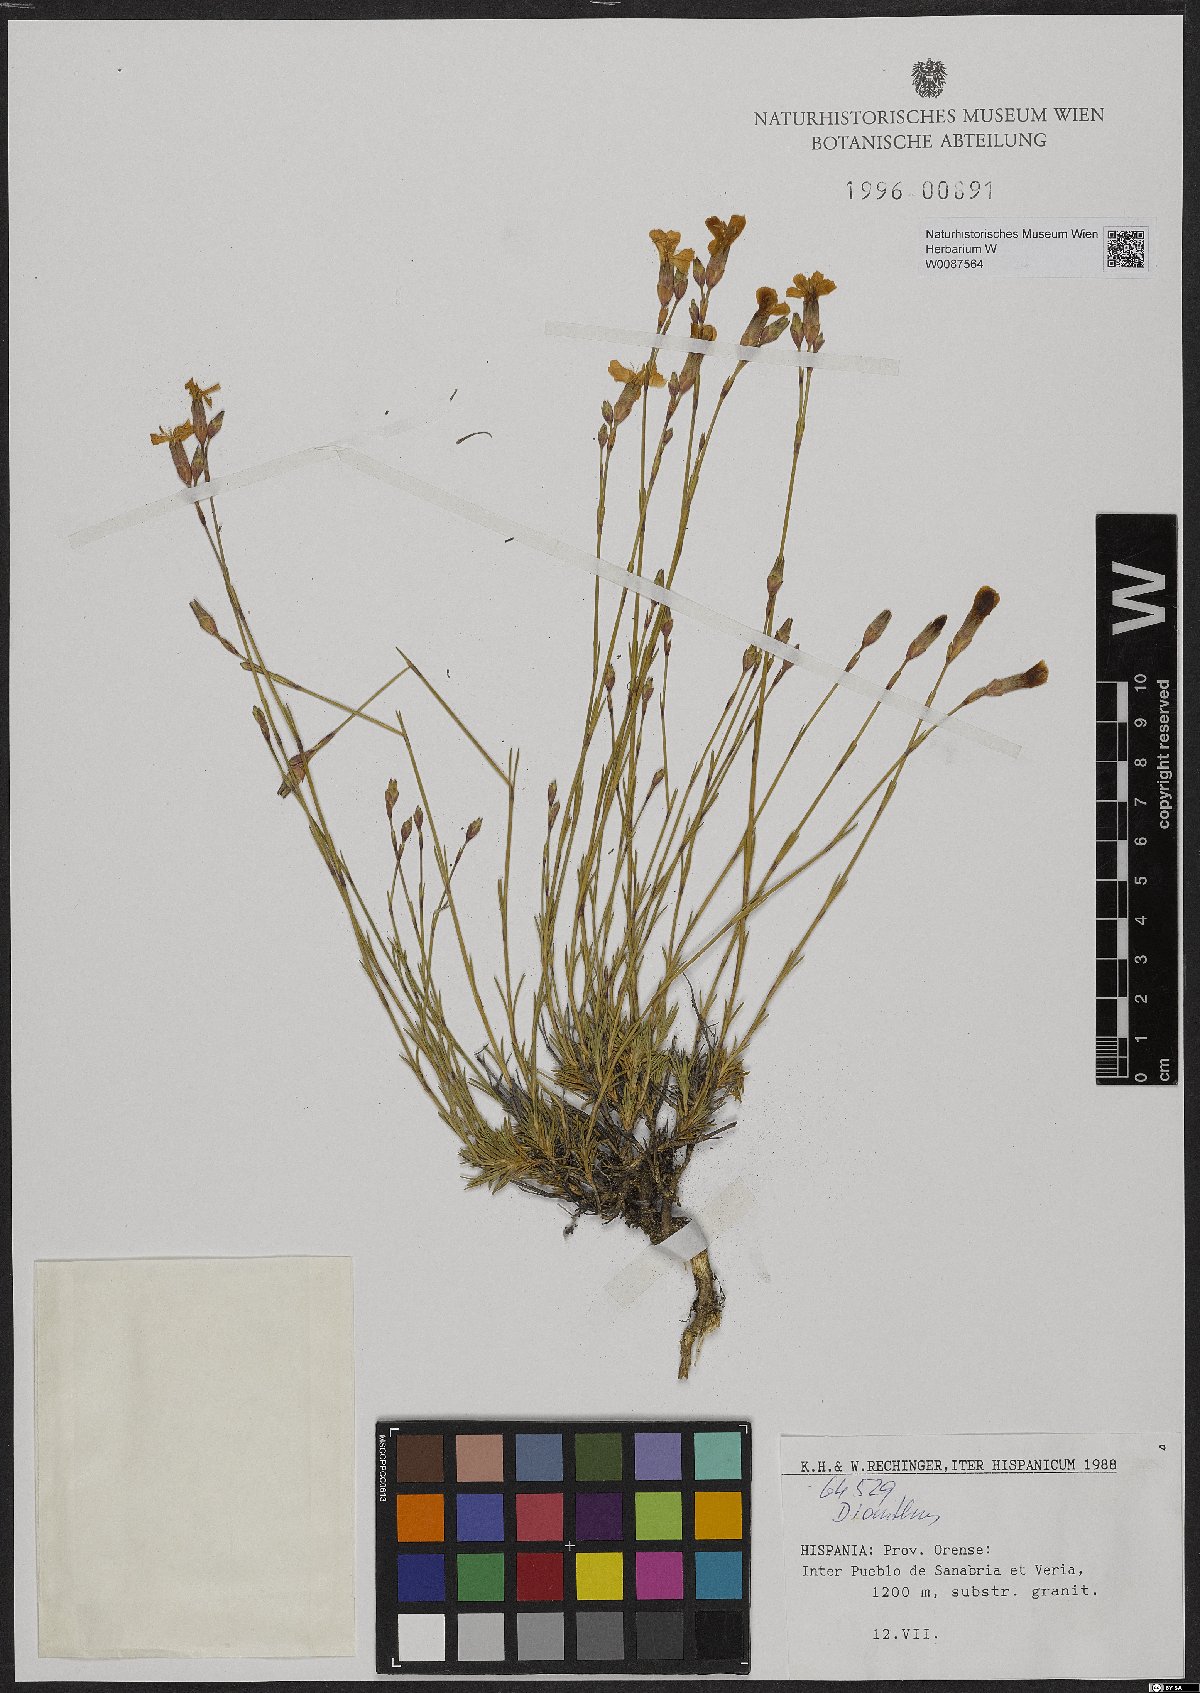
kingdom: Plantae
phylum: Tracheophyta
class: Magnoliopsida
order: Caryophyllales
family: Caryophyllaceae
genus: Dianthus
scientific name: Dianthus
